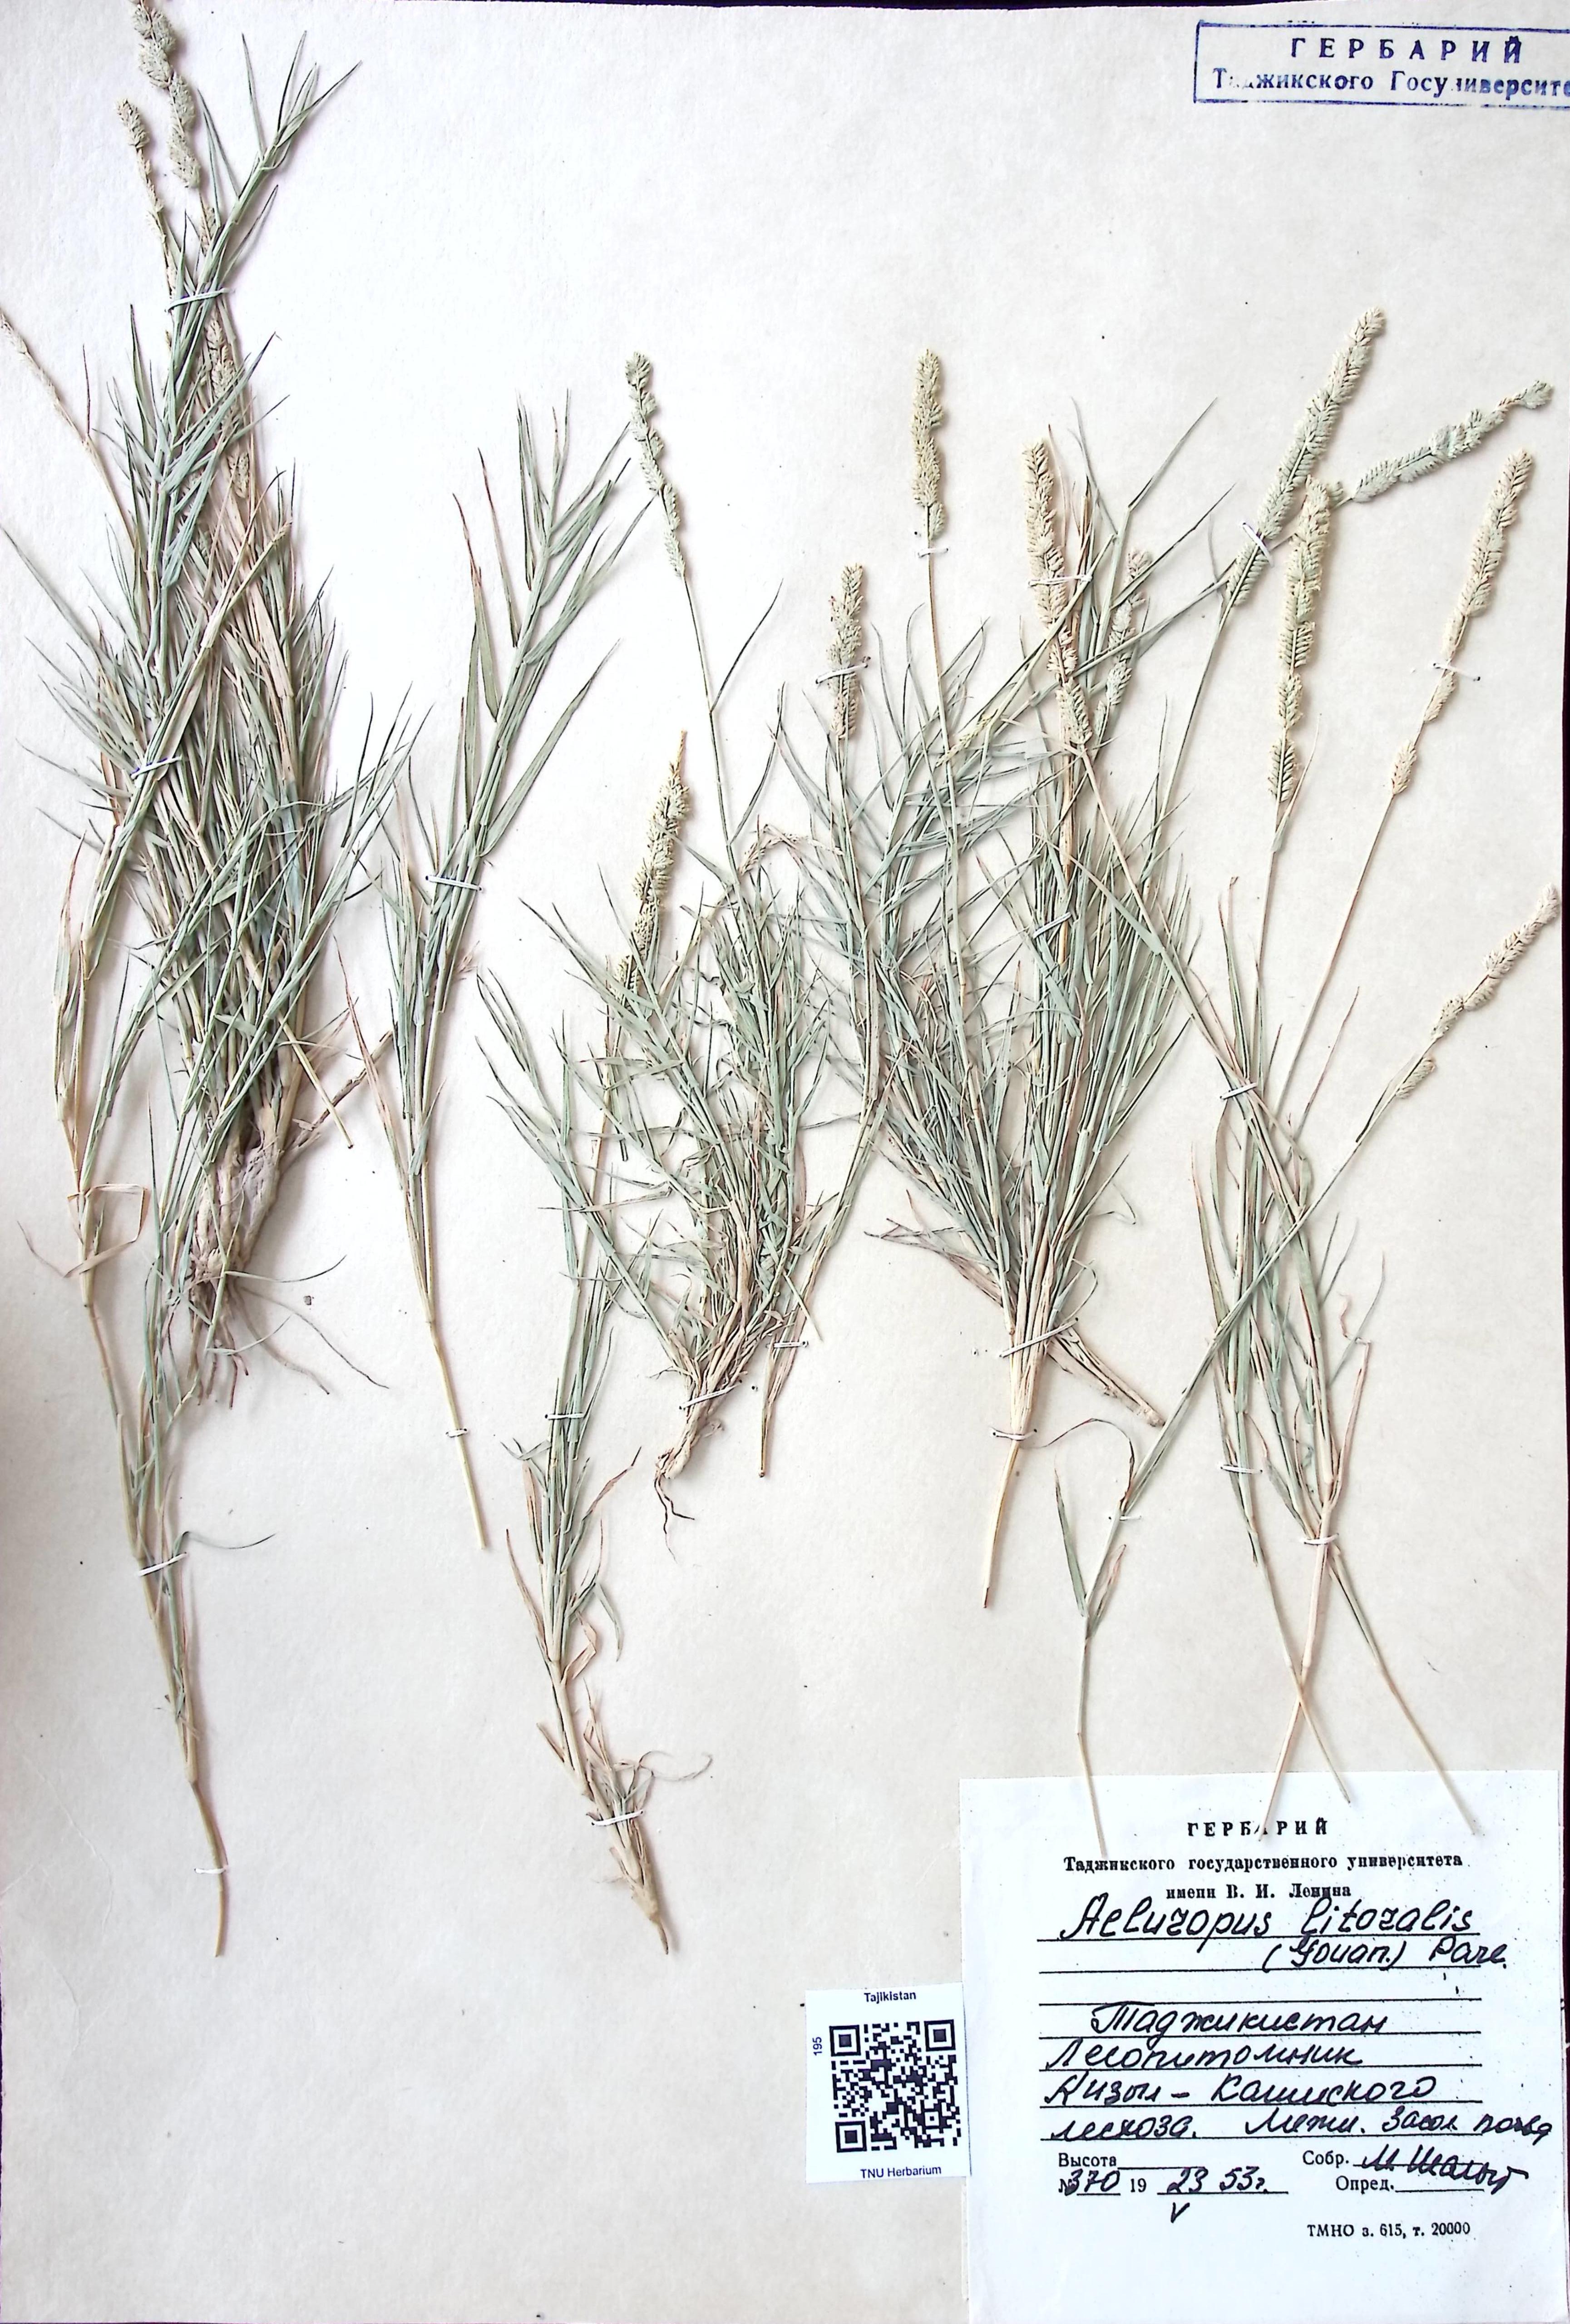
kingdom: Plantae
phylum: Tracheophyta
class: Liliopsida
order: Poales
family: Poaceae
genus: Aeluropus
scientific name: Aeluropus littoralis
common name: Indian walnut
